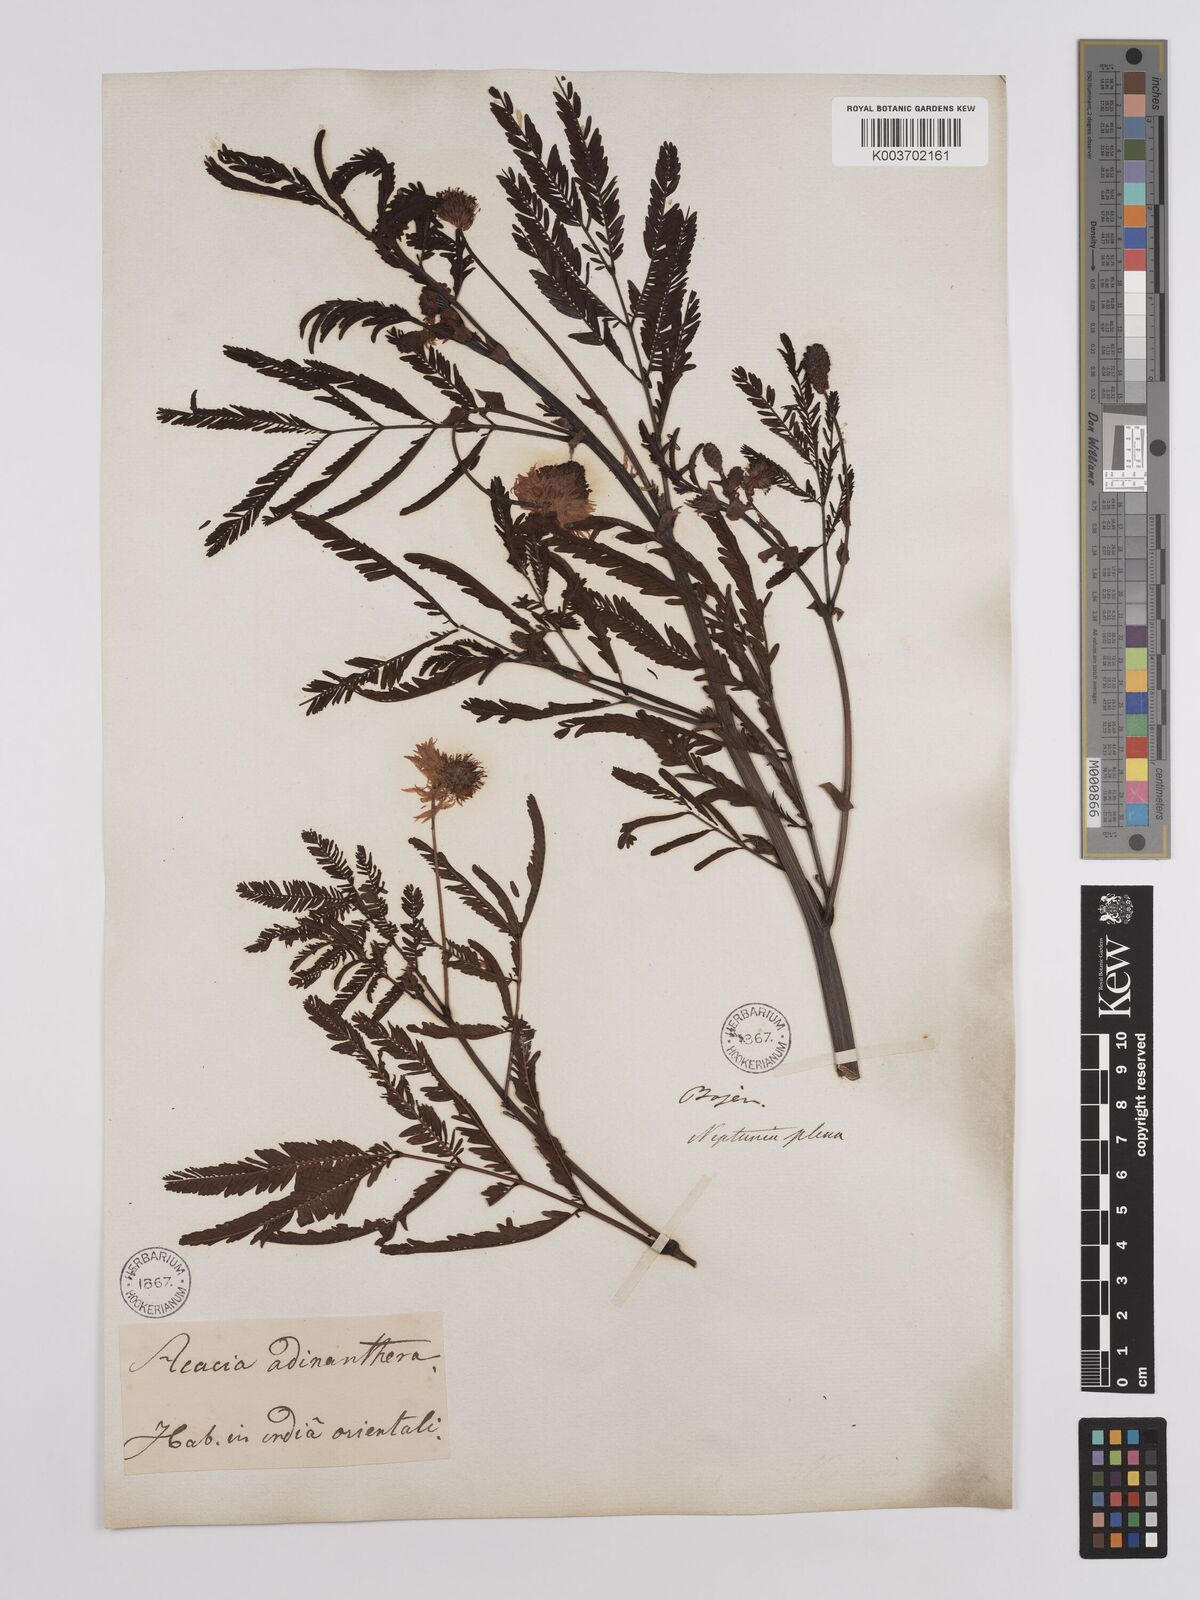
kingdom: Plantae
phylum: Tracheophyta
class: Magnoliopsida
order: Fabales
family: Fabaceae
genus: Neptunia
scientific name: Neptunia plena
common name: Dead and awake
